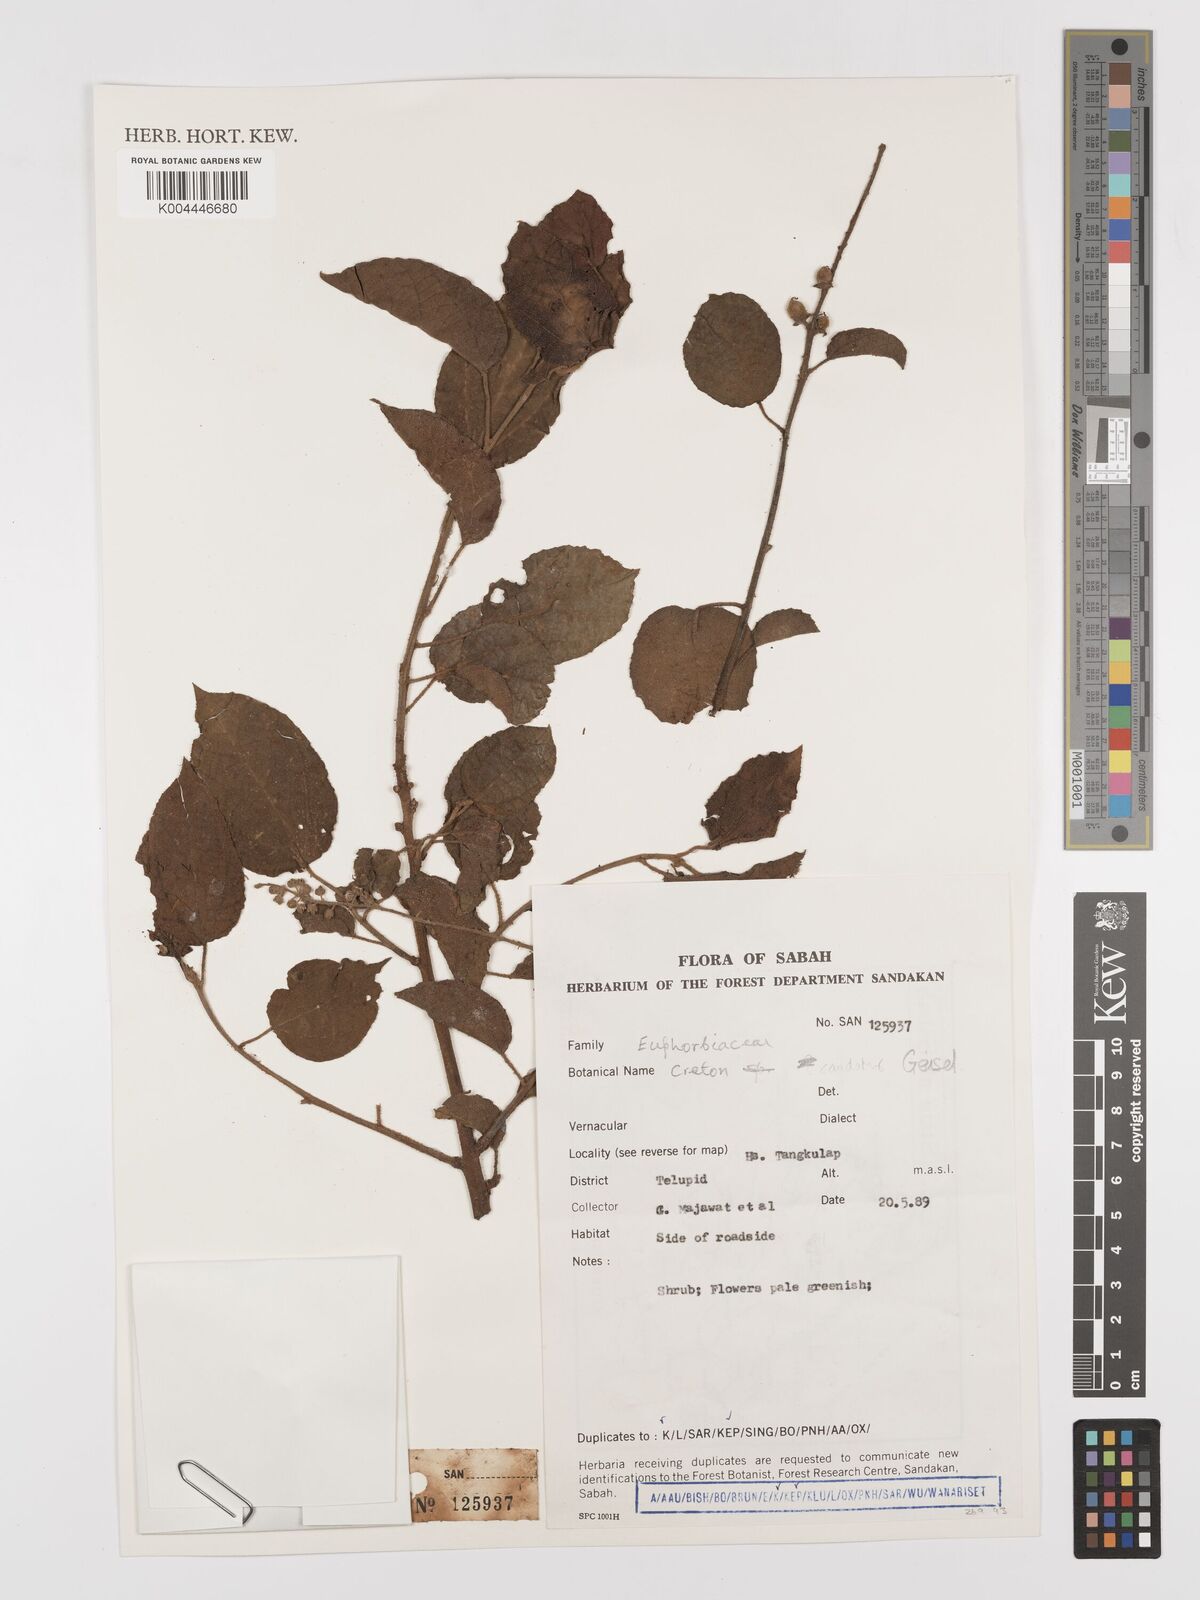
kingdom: Plantae
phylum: Tracheophyta
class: Magnoliopsida
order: Malpighiales
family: Euphorbiaceae
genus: Croton
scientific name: Croton caudatus
